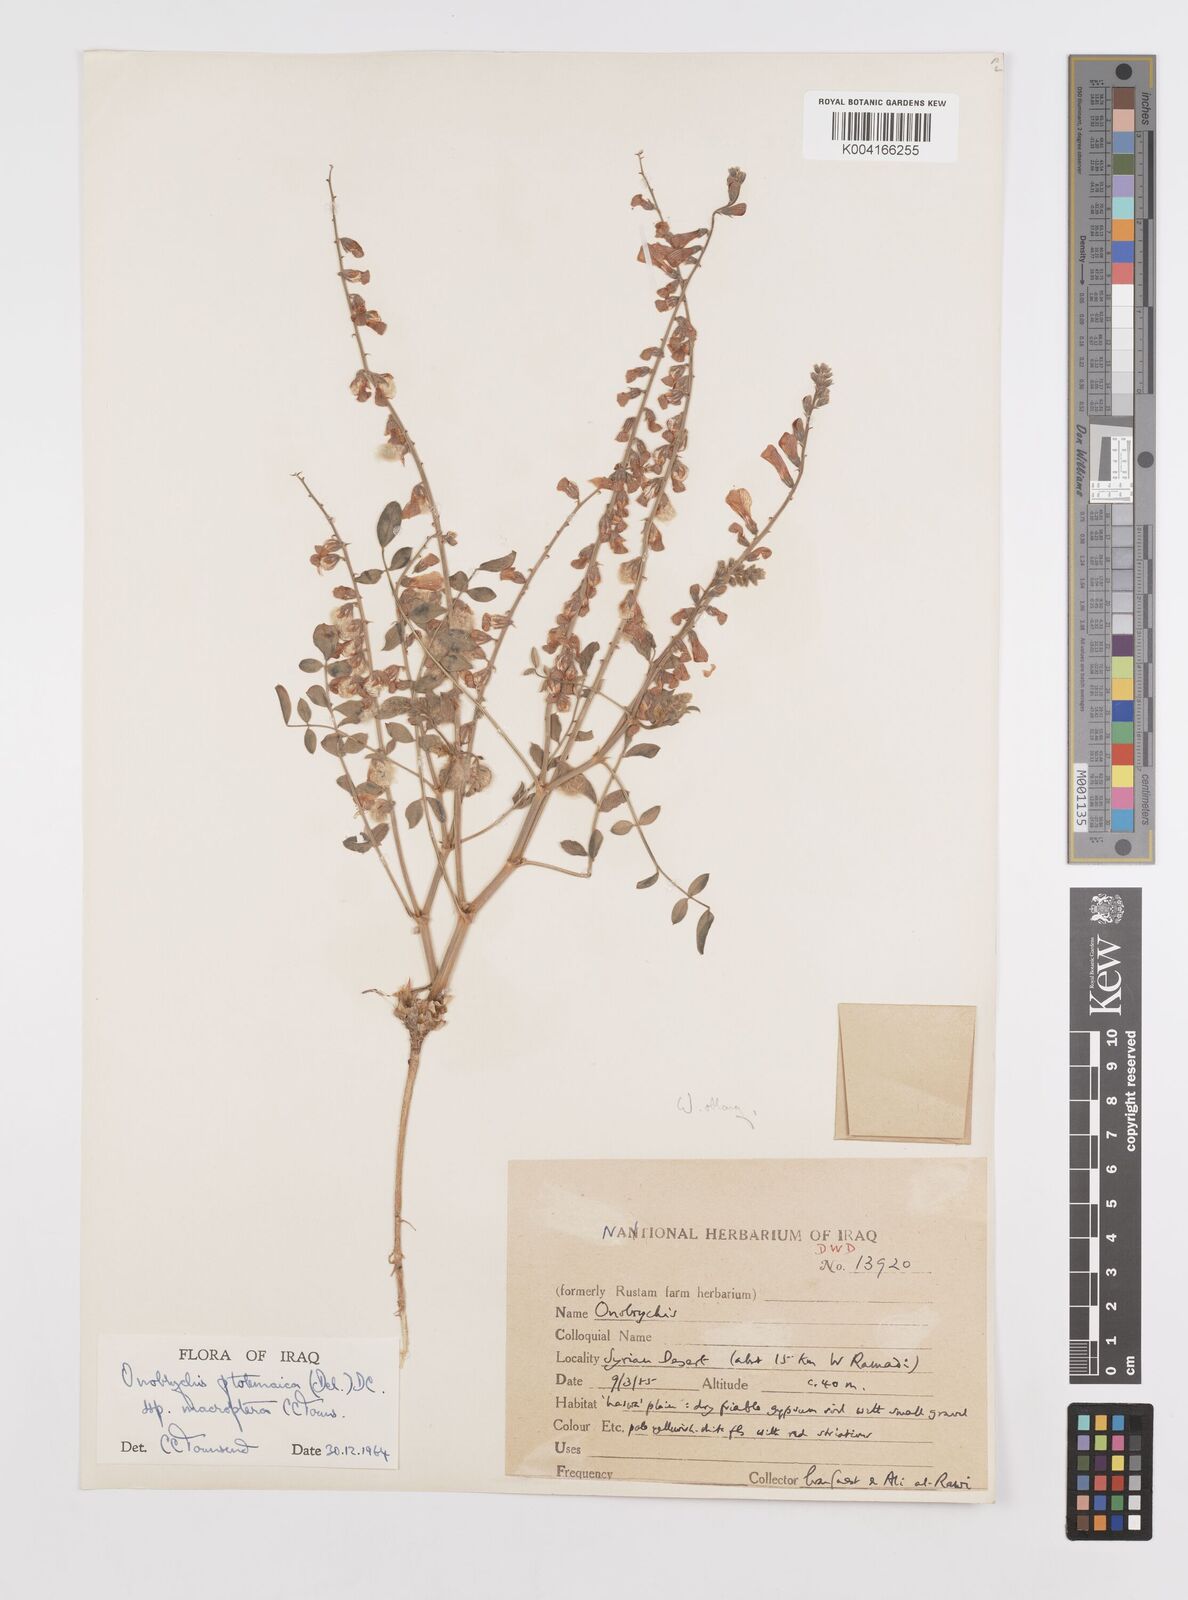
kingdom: Plantae
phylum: Tracheophyta
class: Magnoliopsida
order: Fabales
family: Fabaceae
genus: Onobrychis
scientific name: Onobrychis ptolemaica
